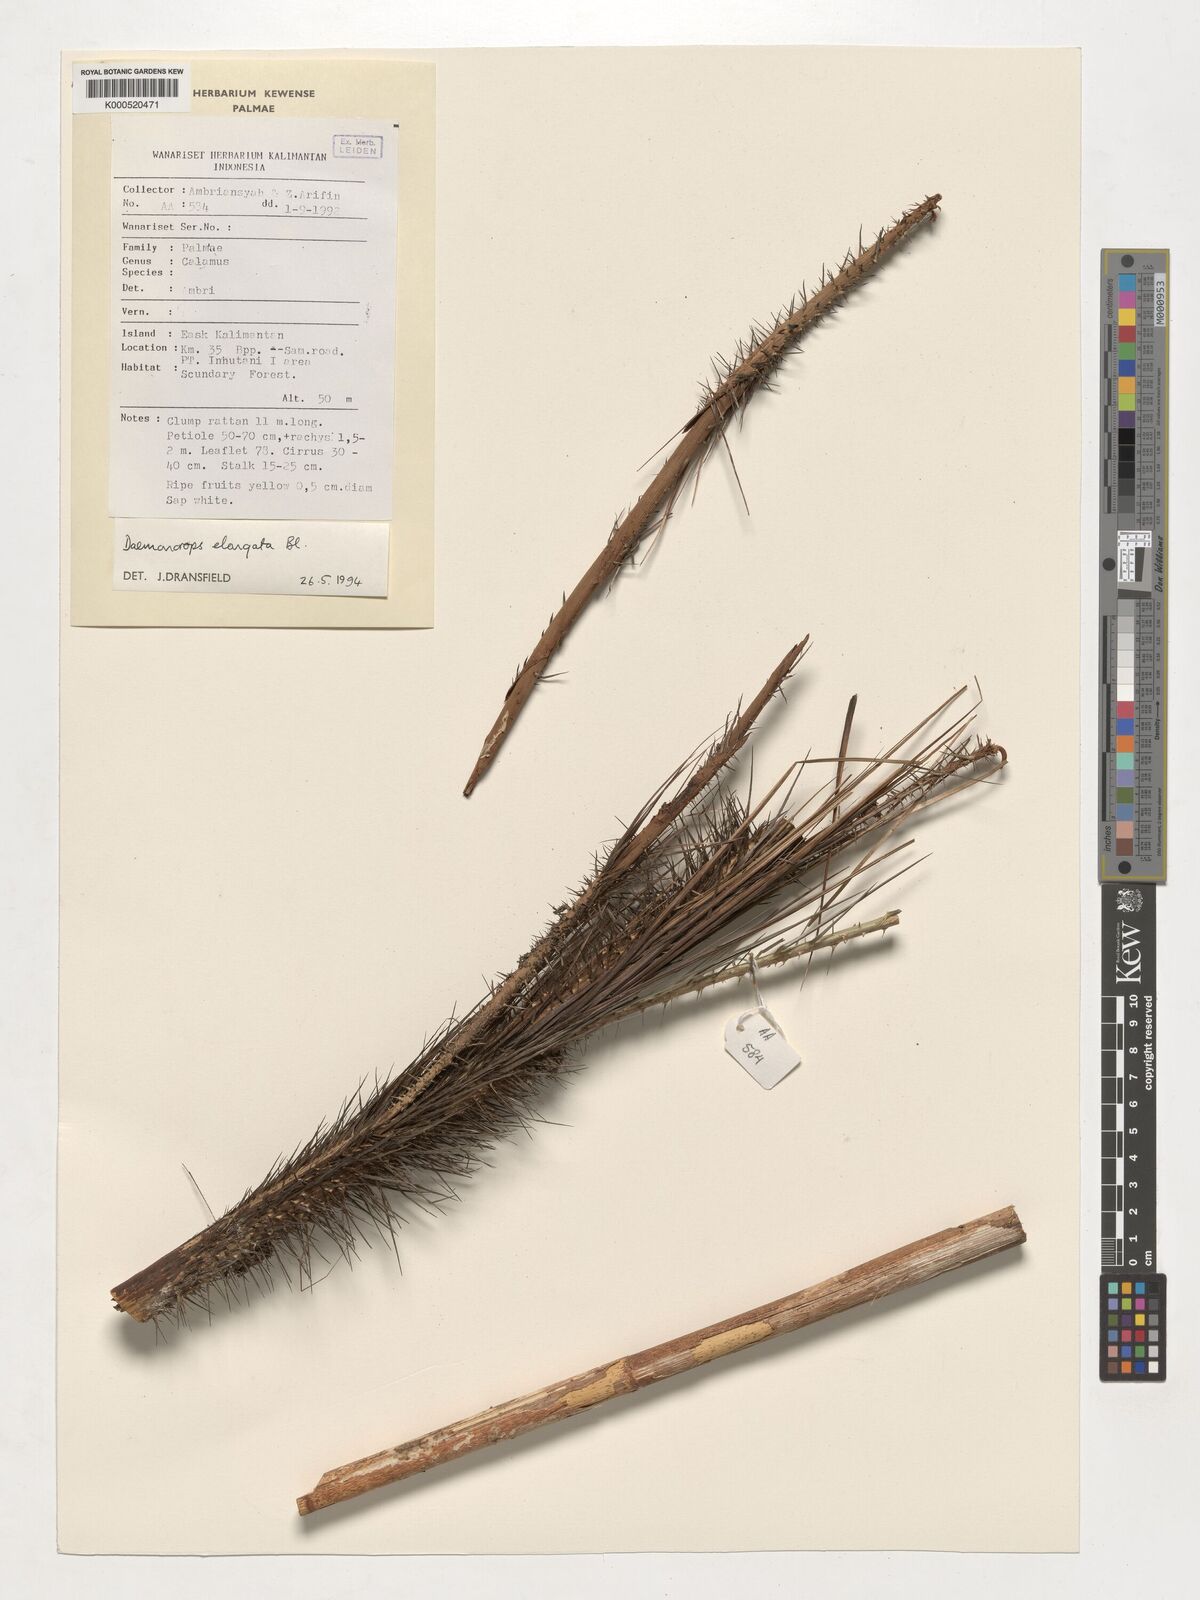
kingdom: Plantae
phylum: Tracheophyta
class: Liliopsida
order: Arecales
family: Arecaceae
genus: Calamus
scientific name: Calamus oblongus
